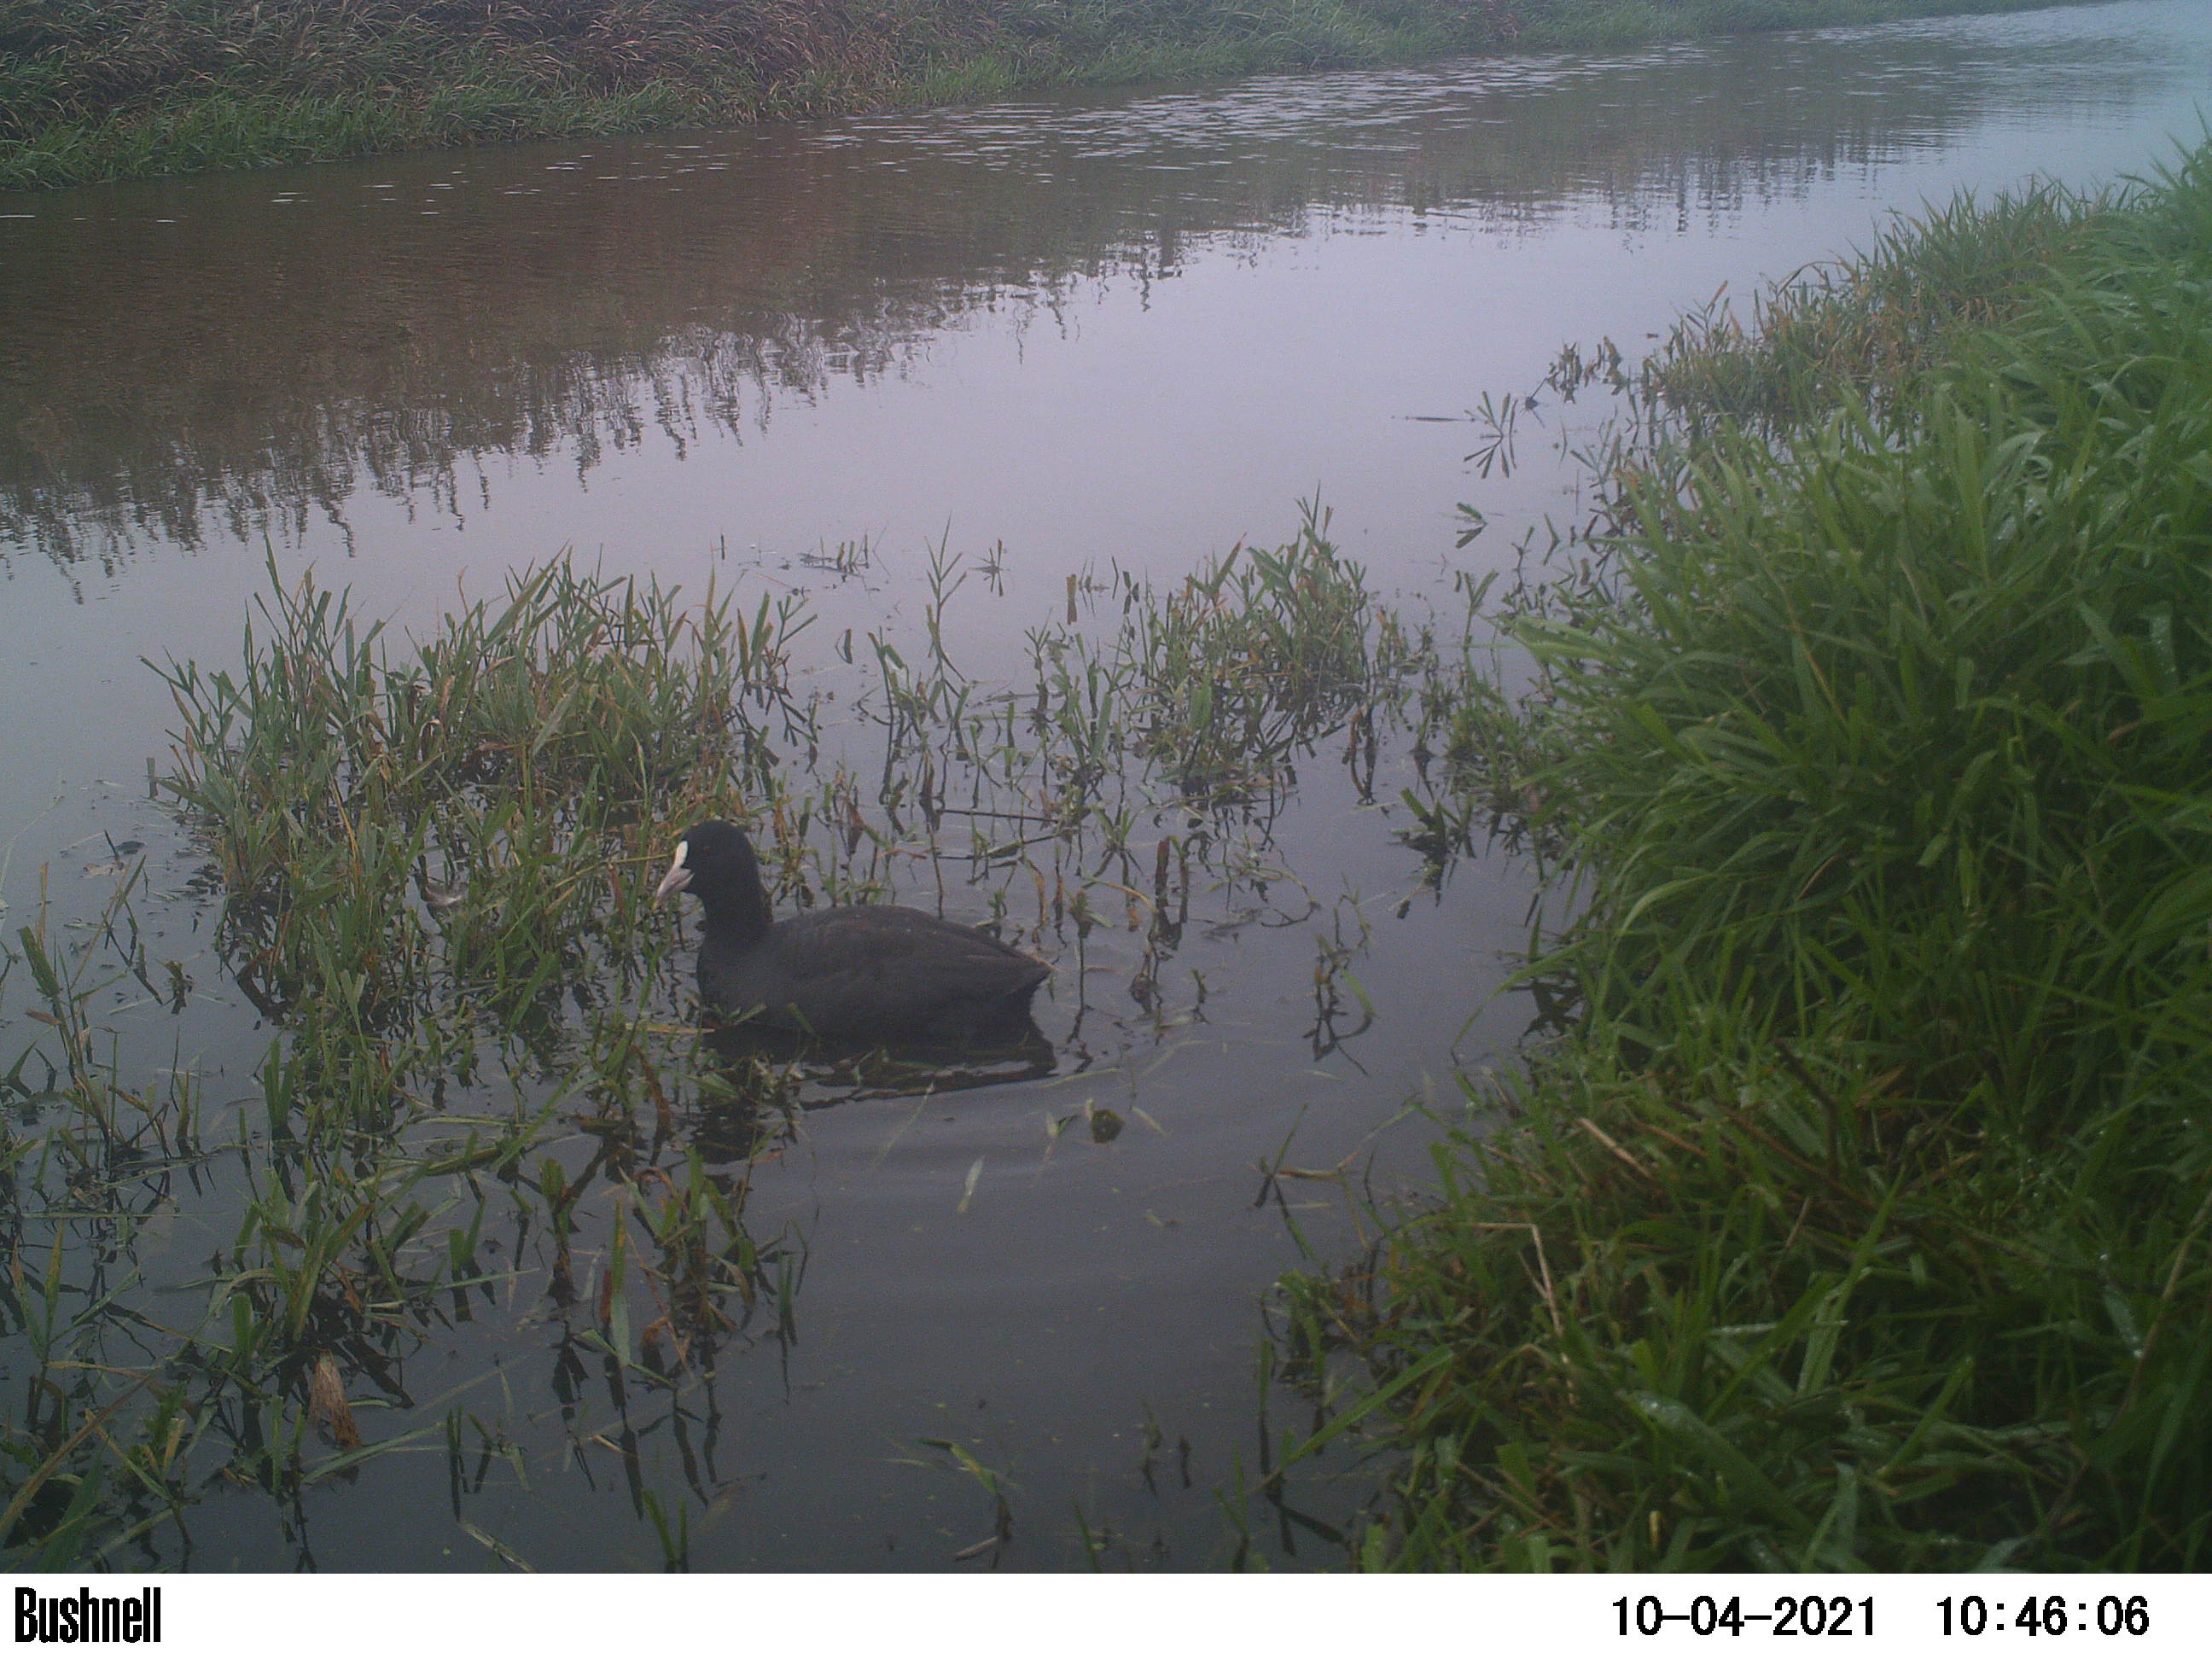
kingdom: Animalia
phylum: Chordata
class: Aves
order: Gruiformes
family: Rallidae
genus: Fulica
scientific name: Fulica atra
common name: Eurasian coot
